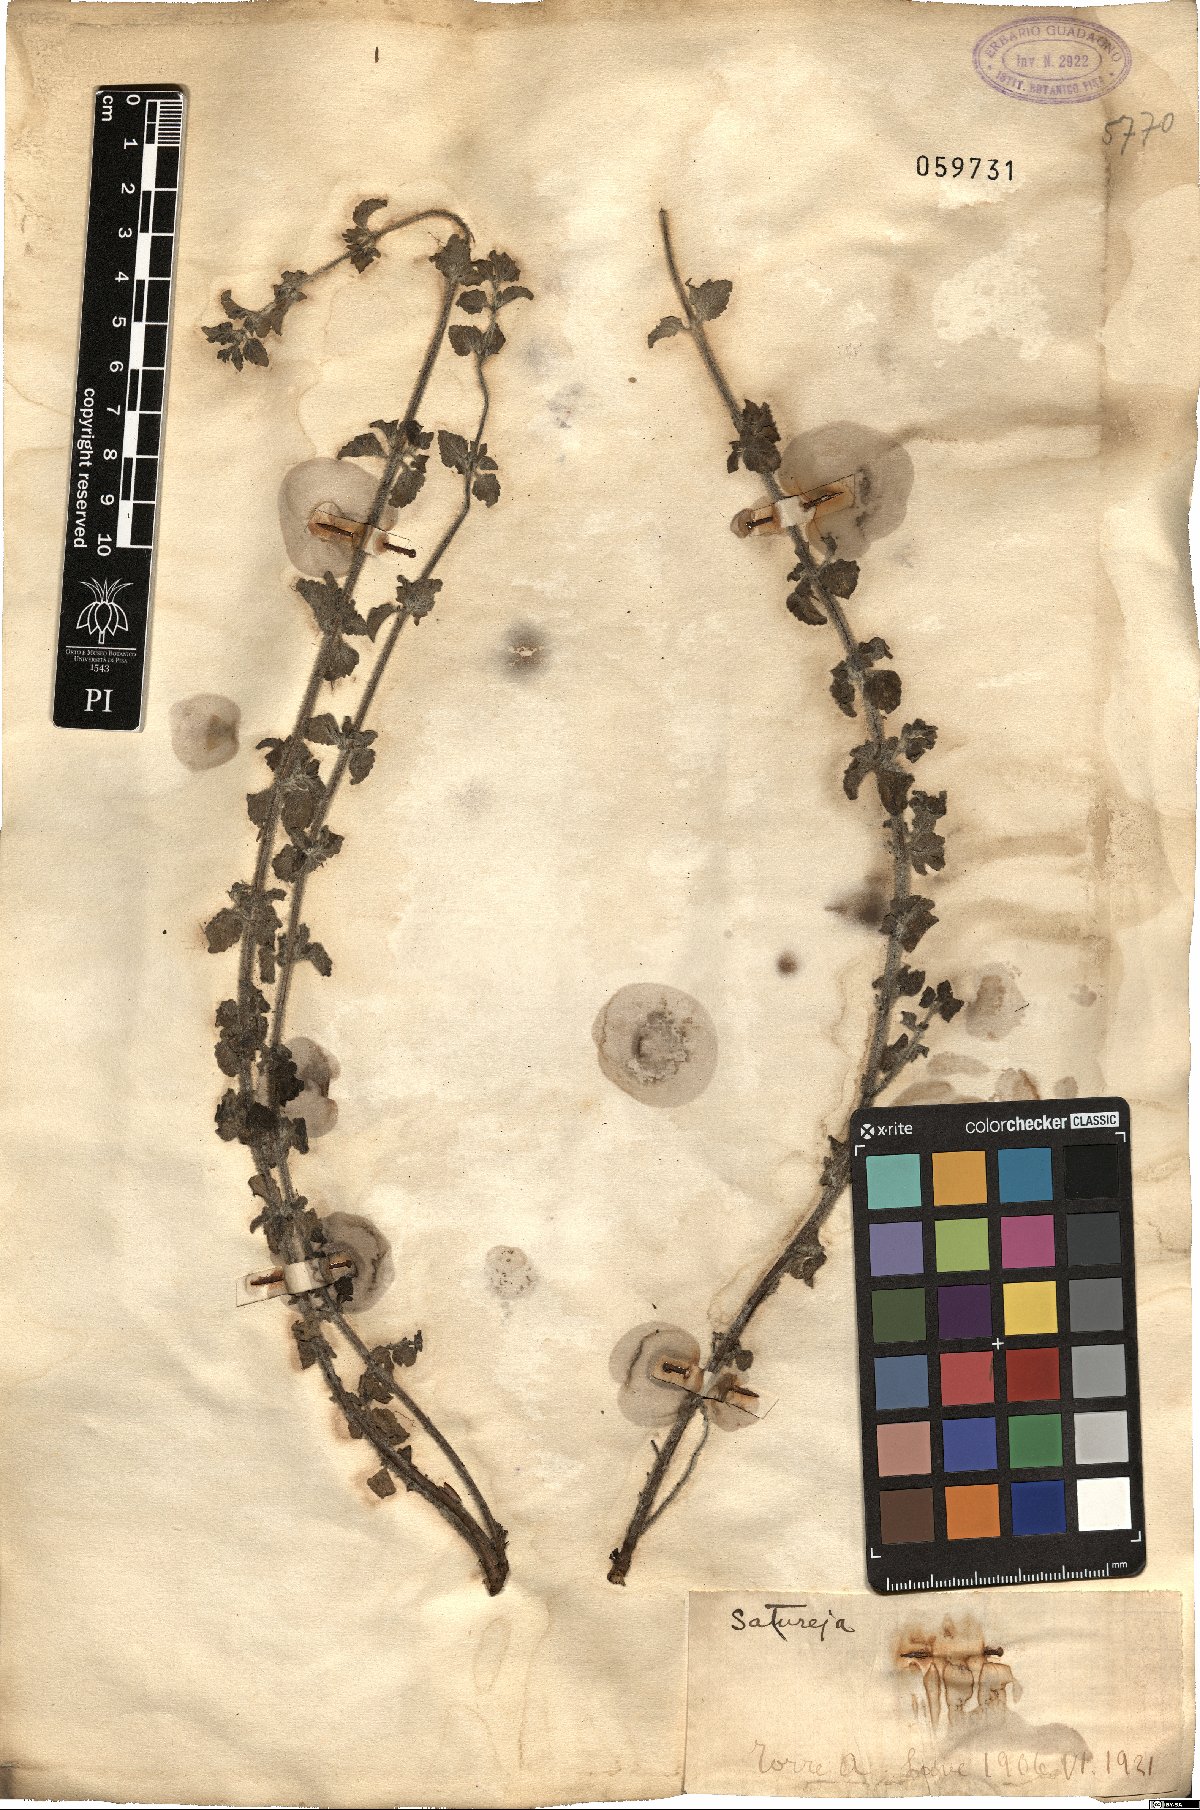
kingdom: Plantae
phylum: Tracheophyta
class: Magnoliopsida
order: Lamiales
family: Lamiaceae
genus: Satureja
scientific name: Satureja
